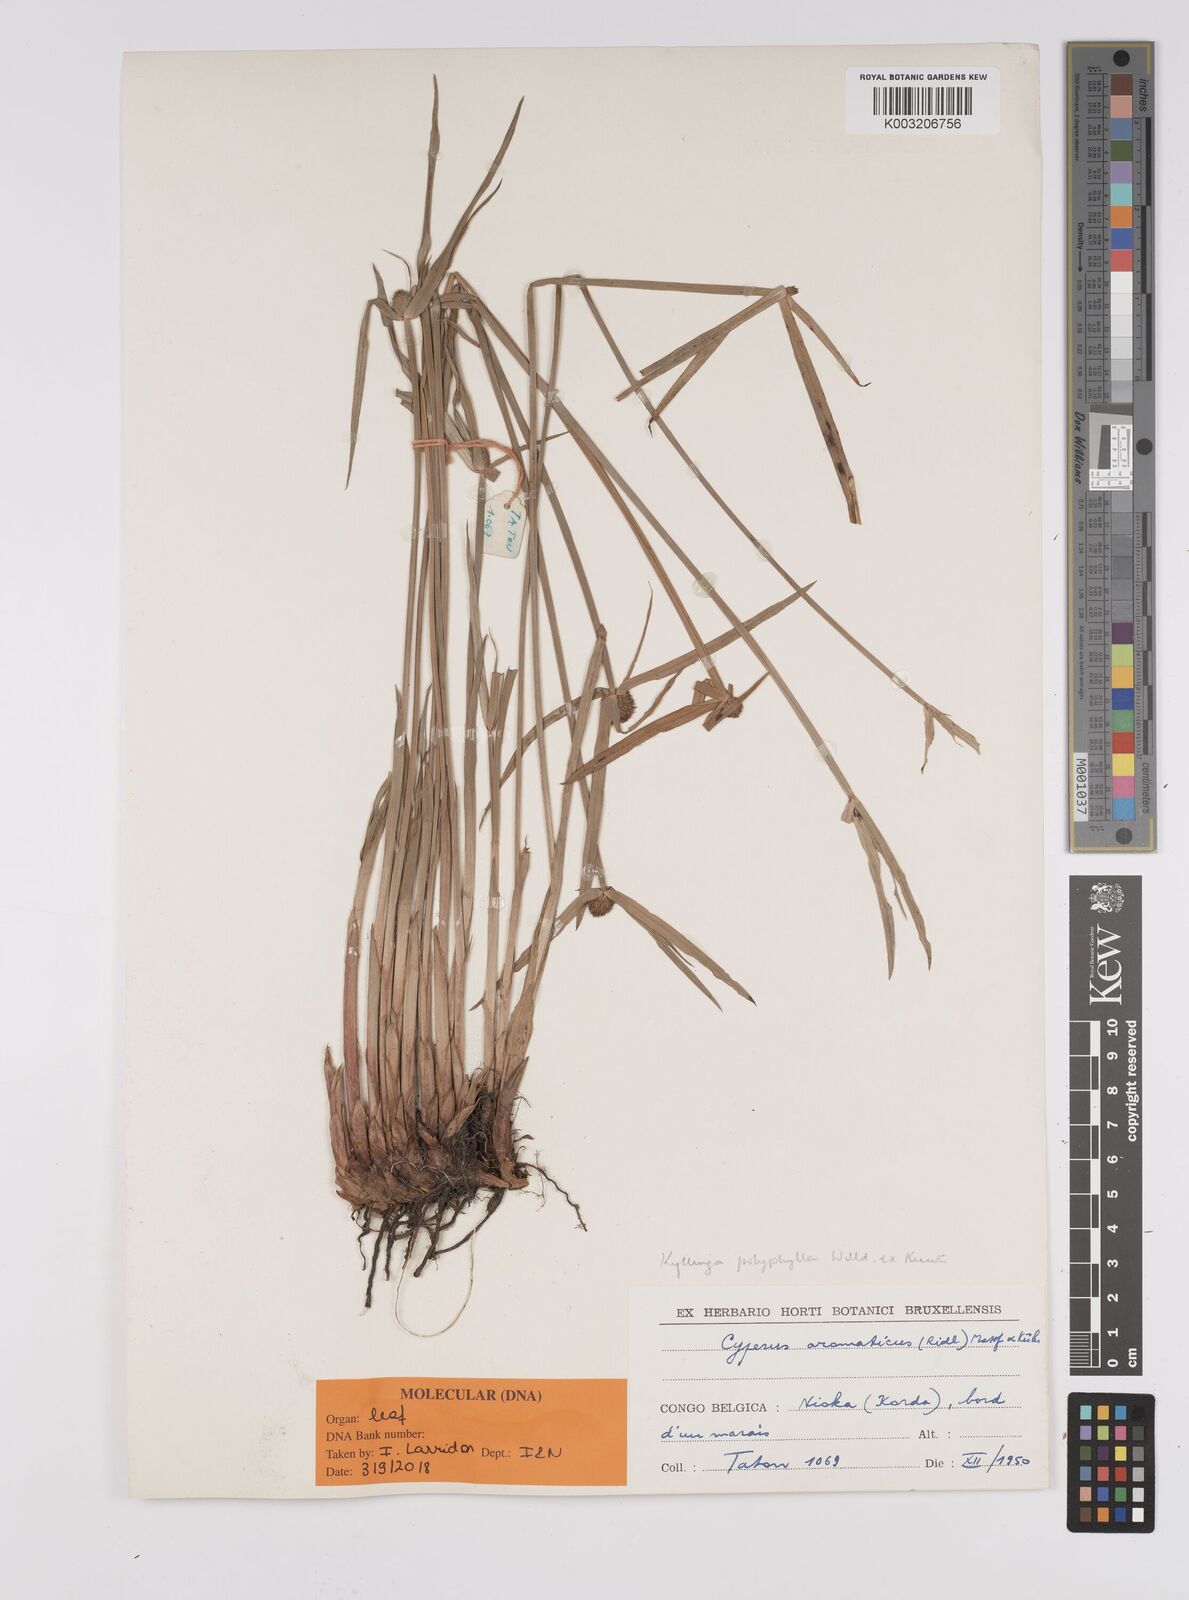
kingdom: Plantae
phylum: Tracheophyta
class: Liliopsida
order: Poales
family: Cyperaceae
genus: Cyperus
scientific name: Cyperus
